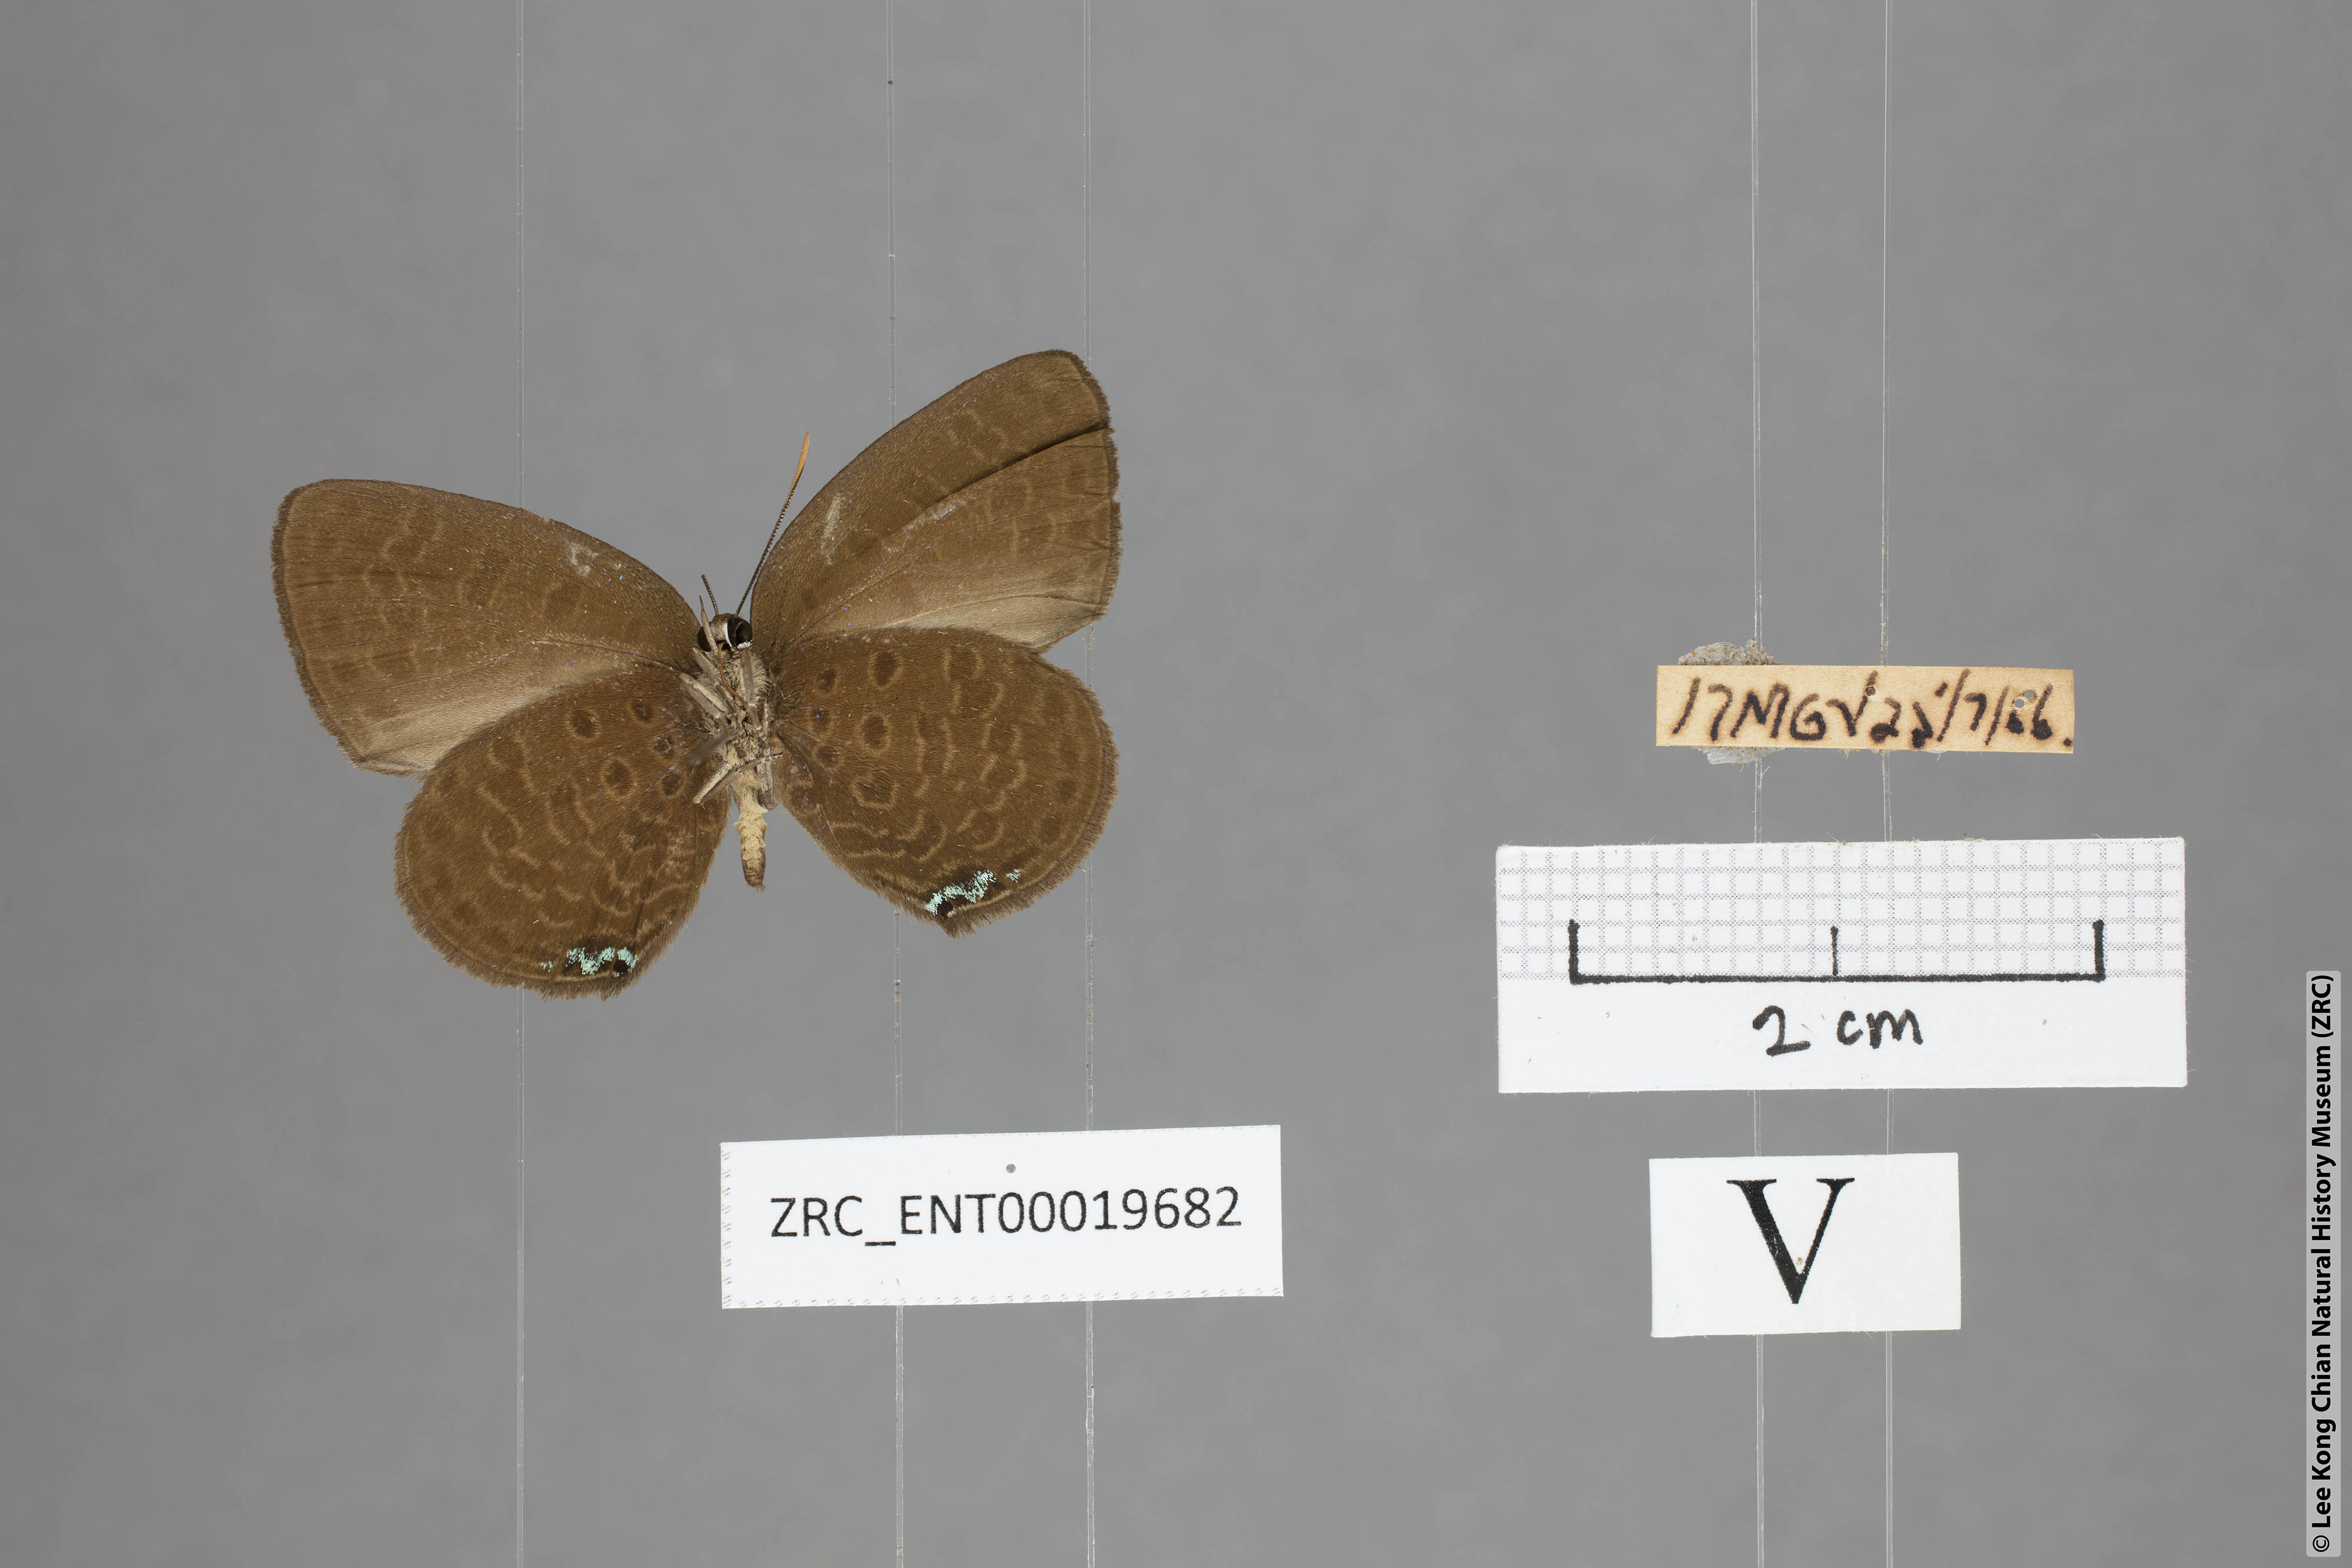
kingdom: Animalia
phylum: Arthropoda
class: Insecta
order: Lepidoptera
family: Lycaenidae
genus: Arhopala
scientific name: Arhopala moorei
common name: Moore's oakblue
